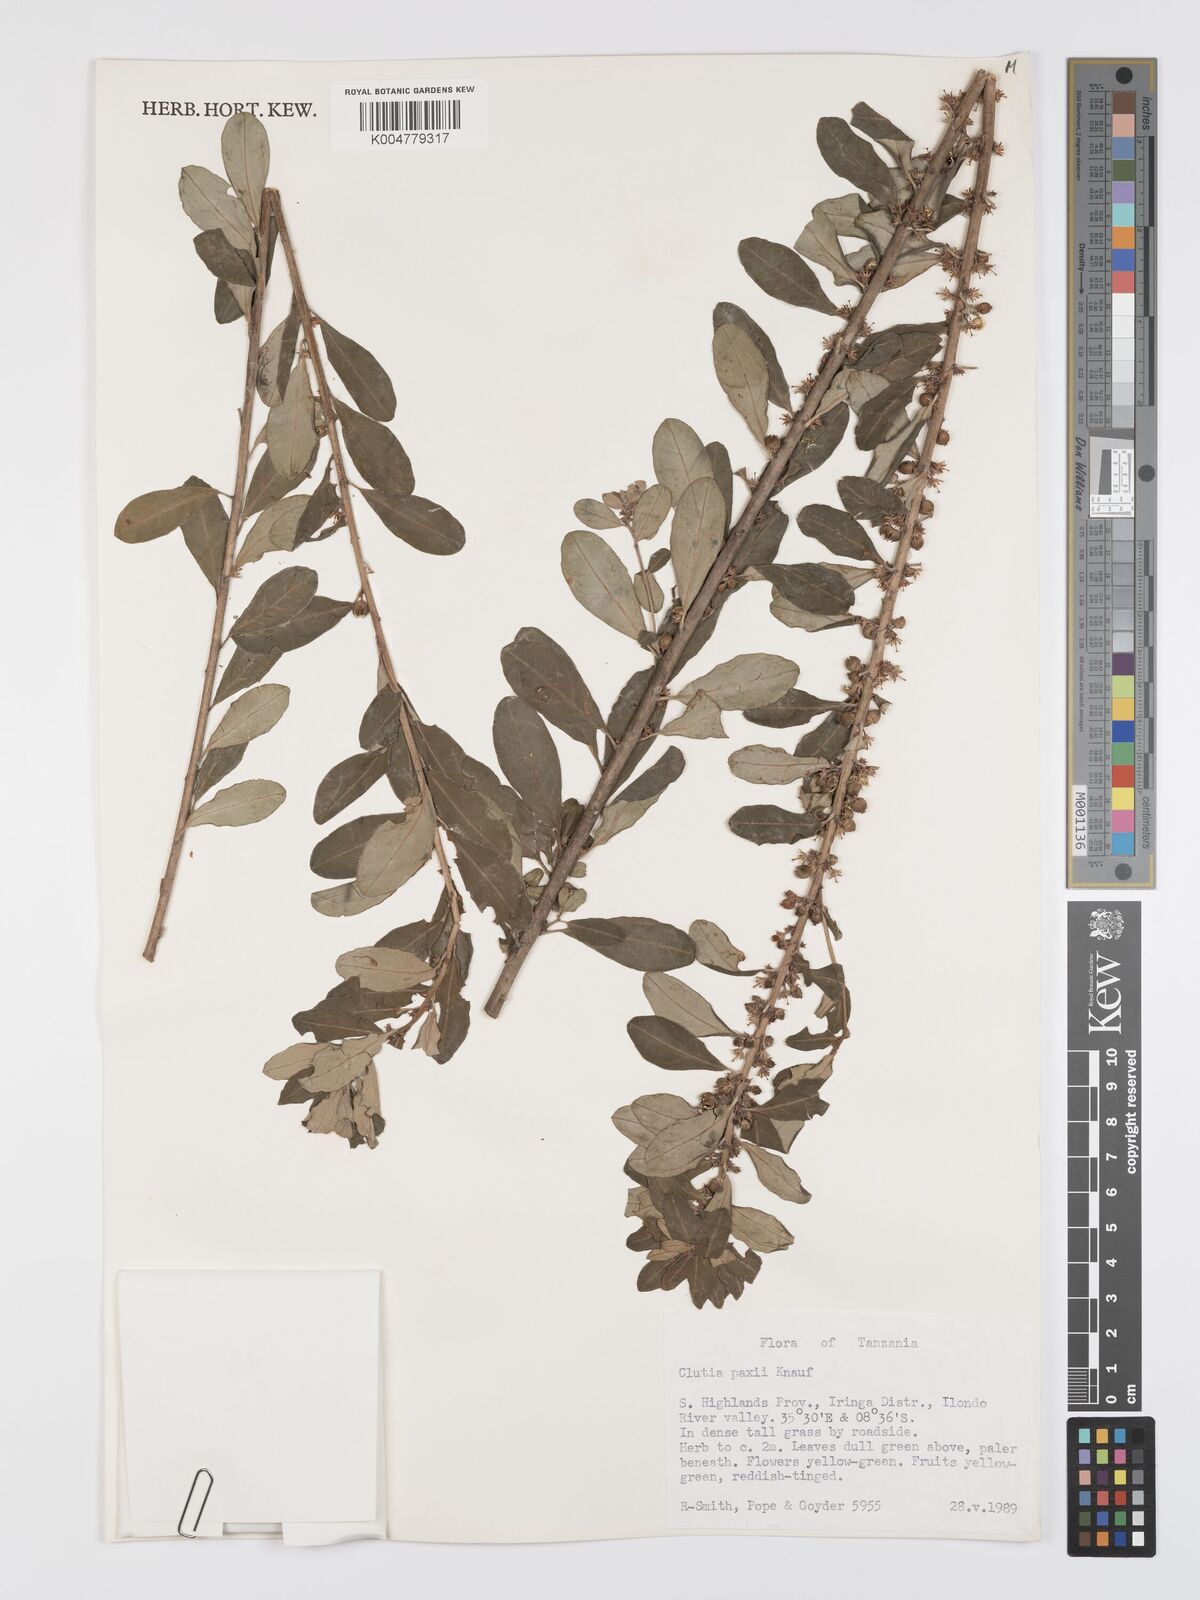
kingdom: Plantae
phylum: Tracheophyta
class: Magnoliopsida
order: Malpighiales
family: Peraceae
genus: Clutia
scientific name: Clutia paxii
